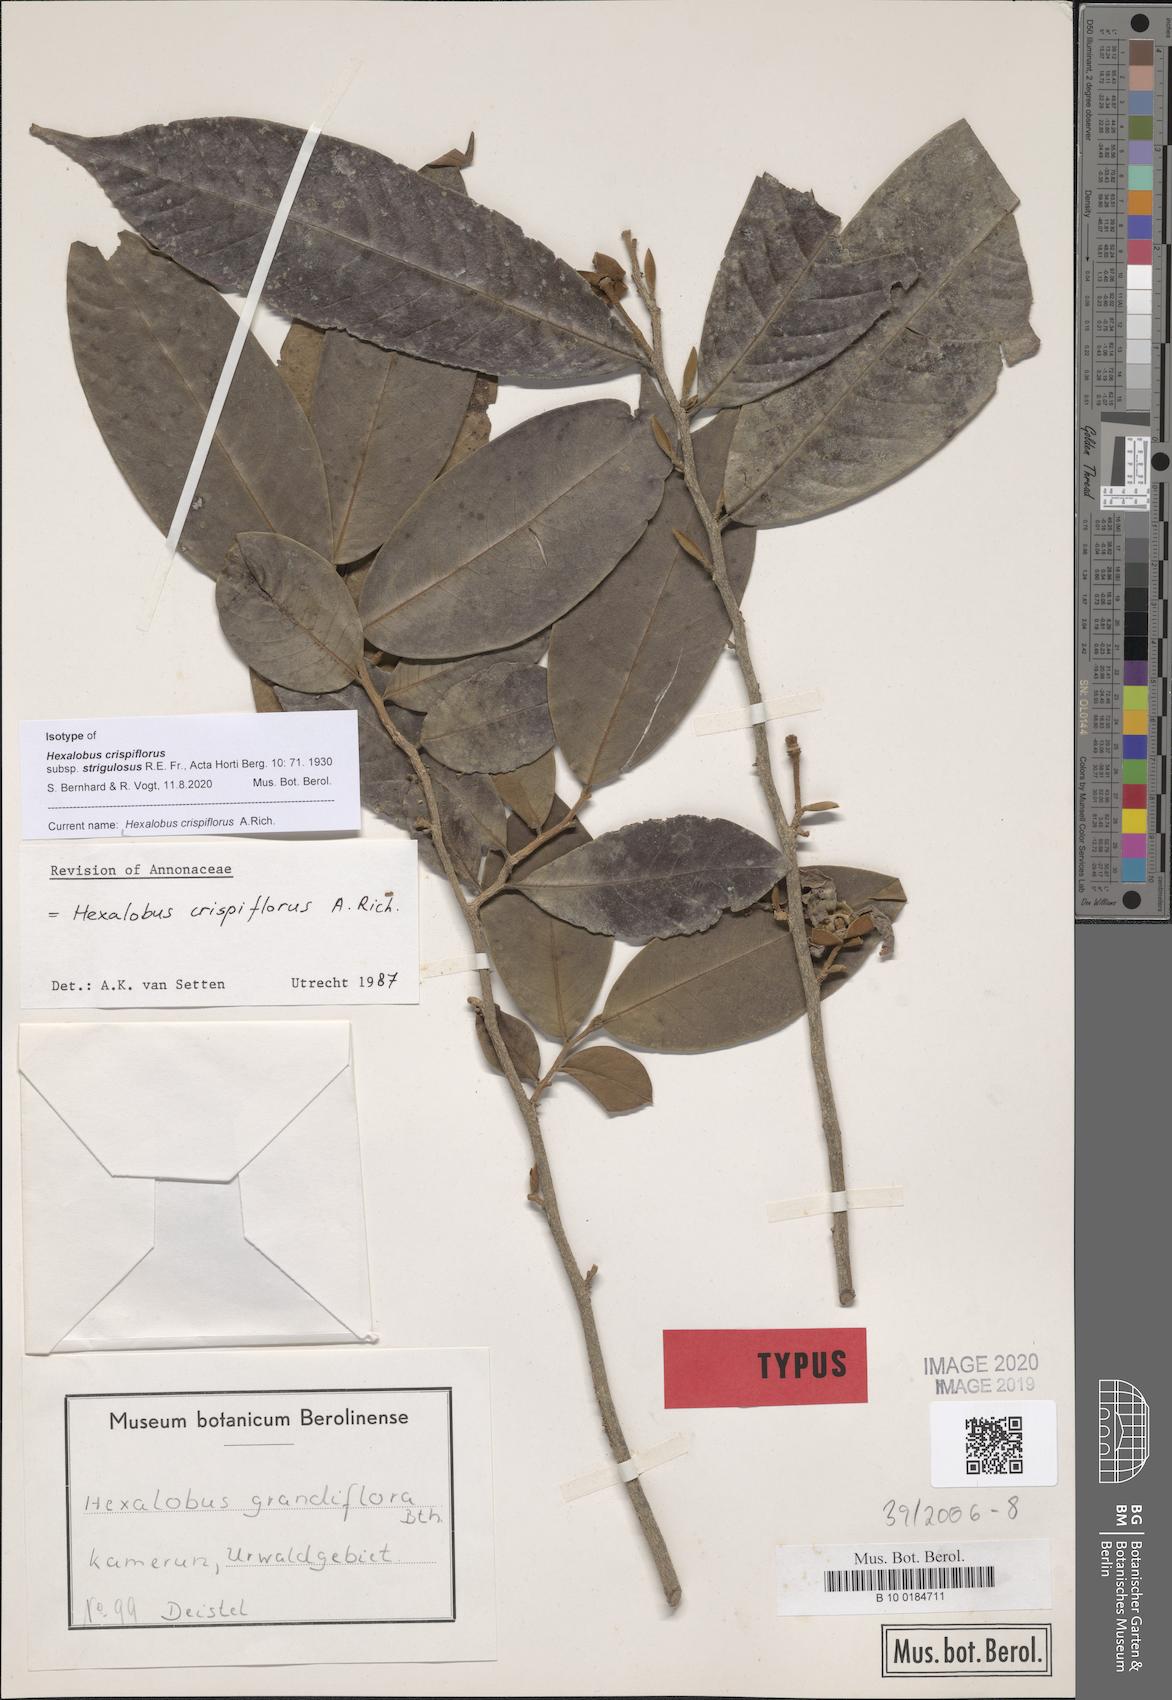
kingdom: Plantae
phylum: Tracheophyta
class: Magnoliopsida
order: Magnoliales
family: Annonaceae
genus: Hexalobus
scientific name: Hexalobus crispiflorus
